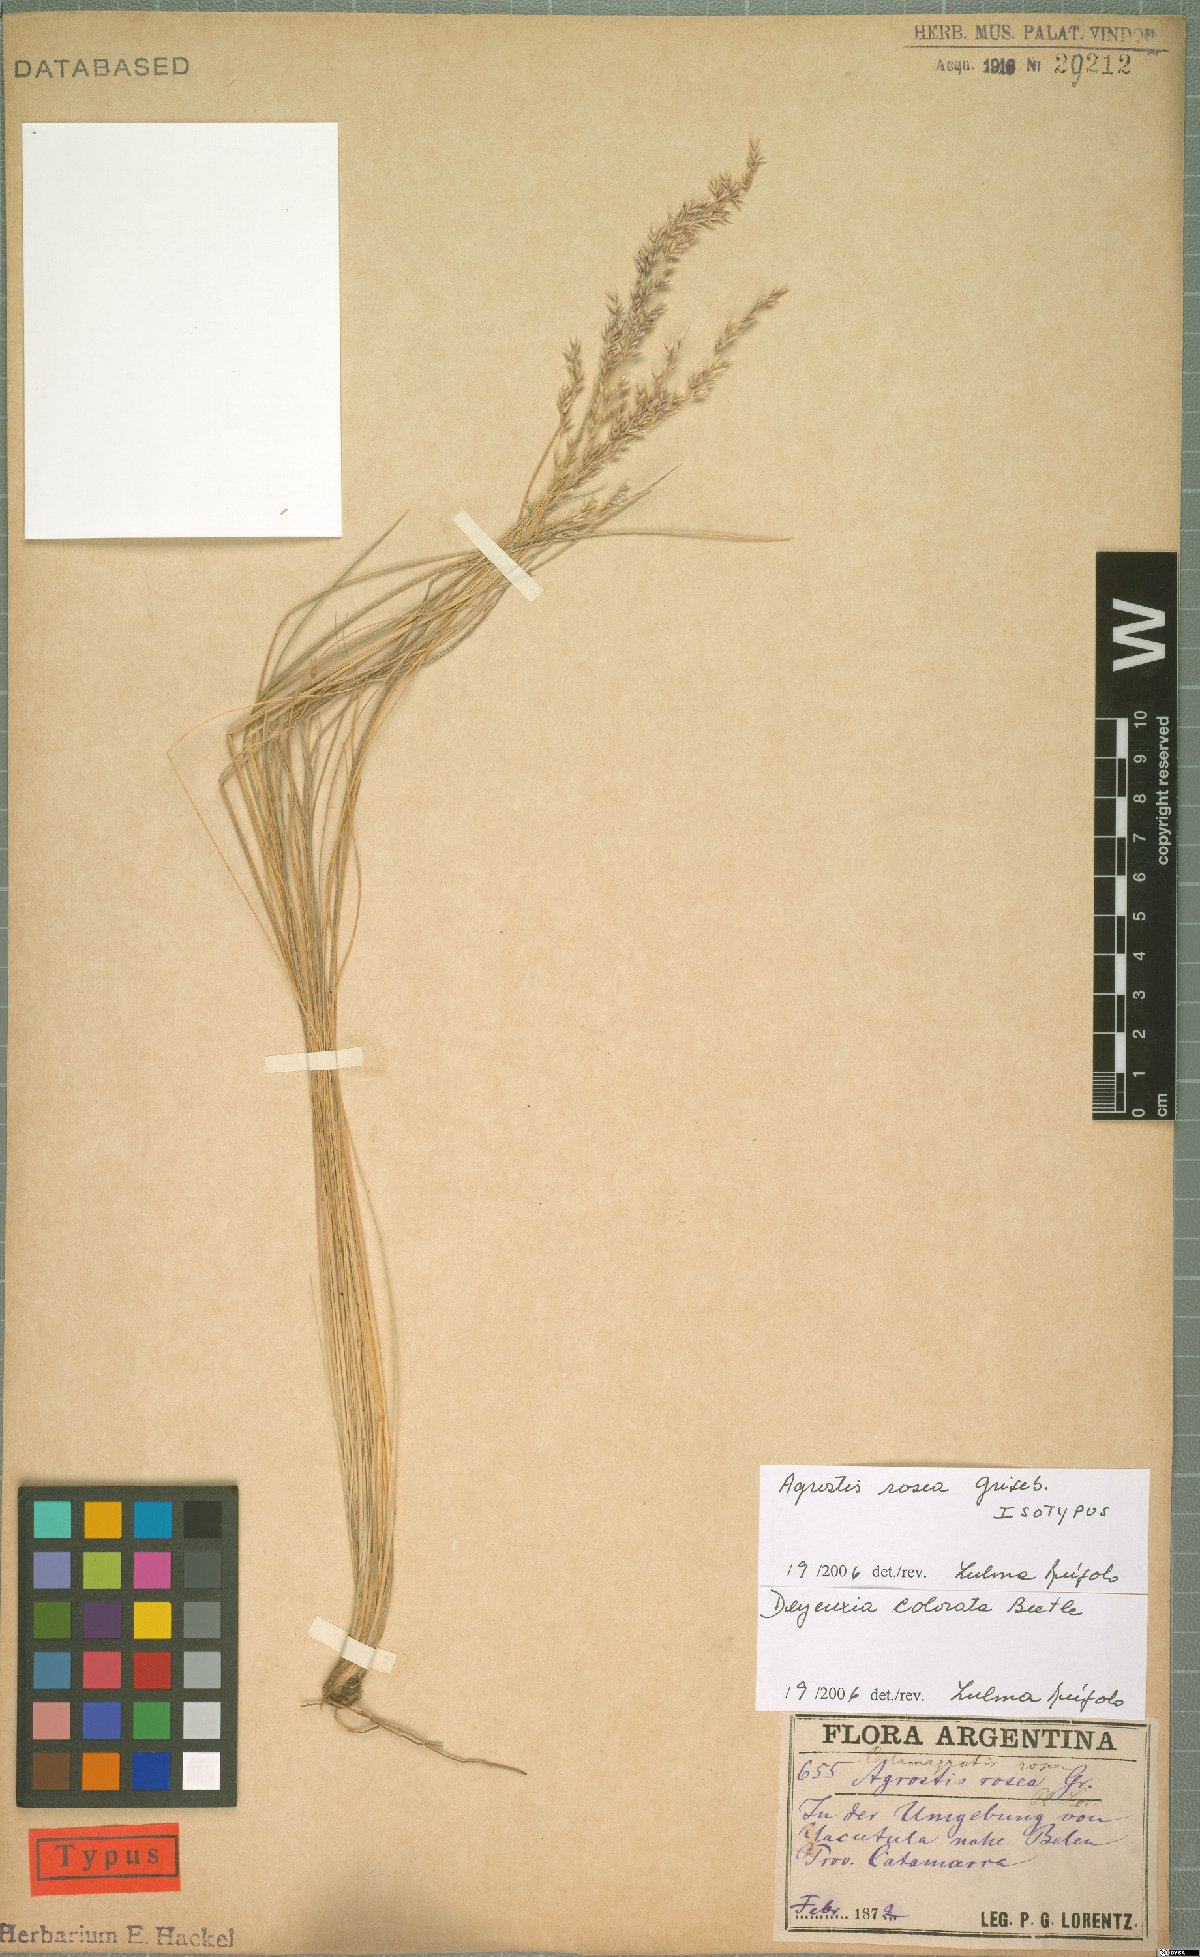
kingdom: Plantae
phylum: Tracheophyta
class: Liliopsida
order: Poales
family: Poaceae
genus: Cinnagrostis
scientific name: Cinnagrostis rosea
